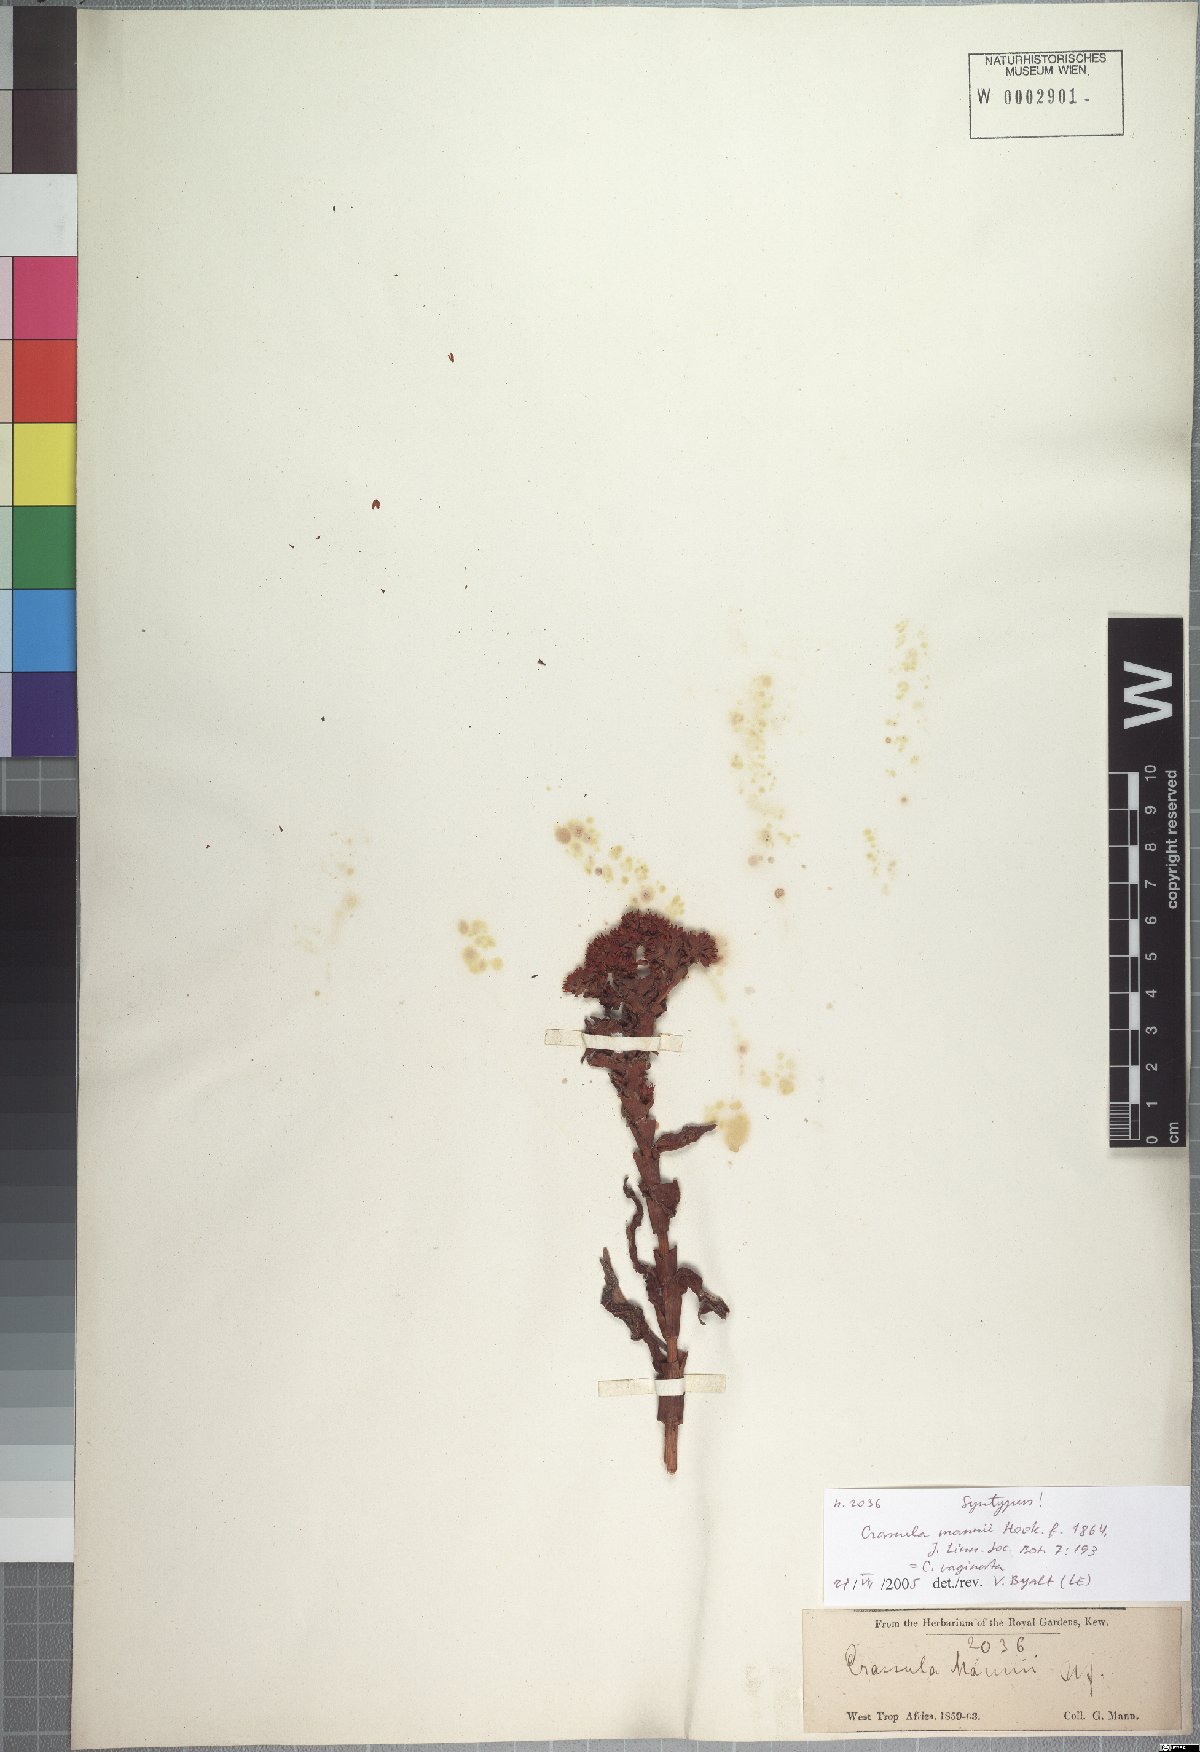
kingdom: Plantae
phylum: Tracheophyta
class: Magnoliopsida
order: Saxifragales
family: Crassulaceae
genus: Crassula
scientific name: Crassula vaginata
